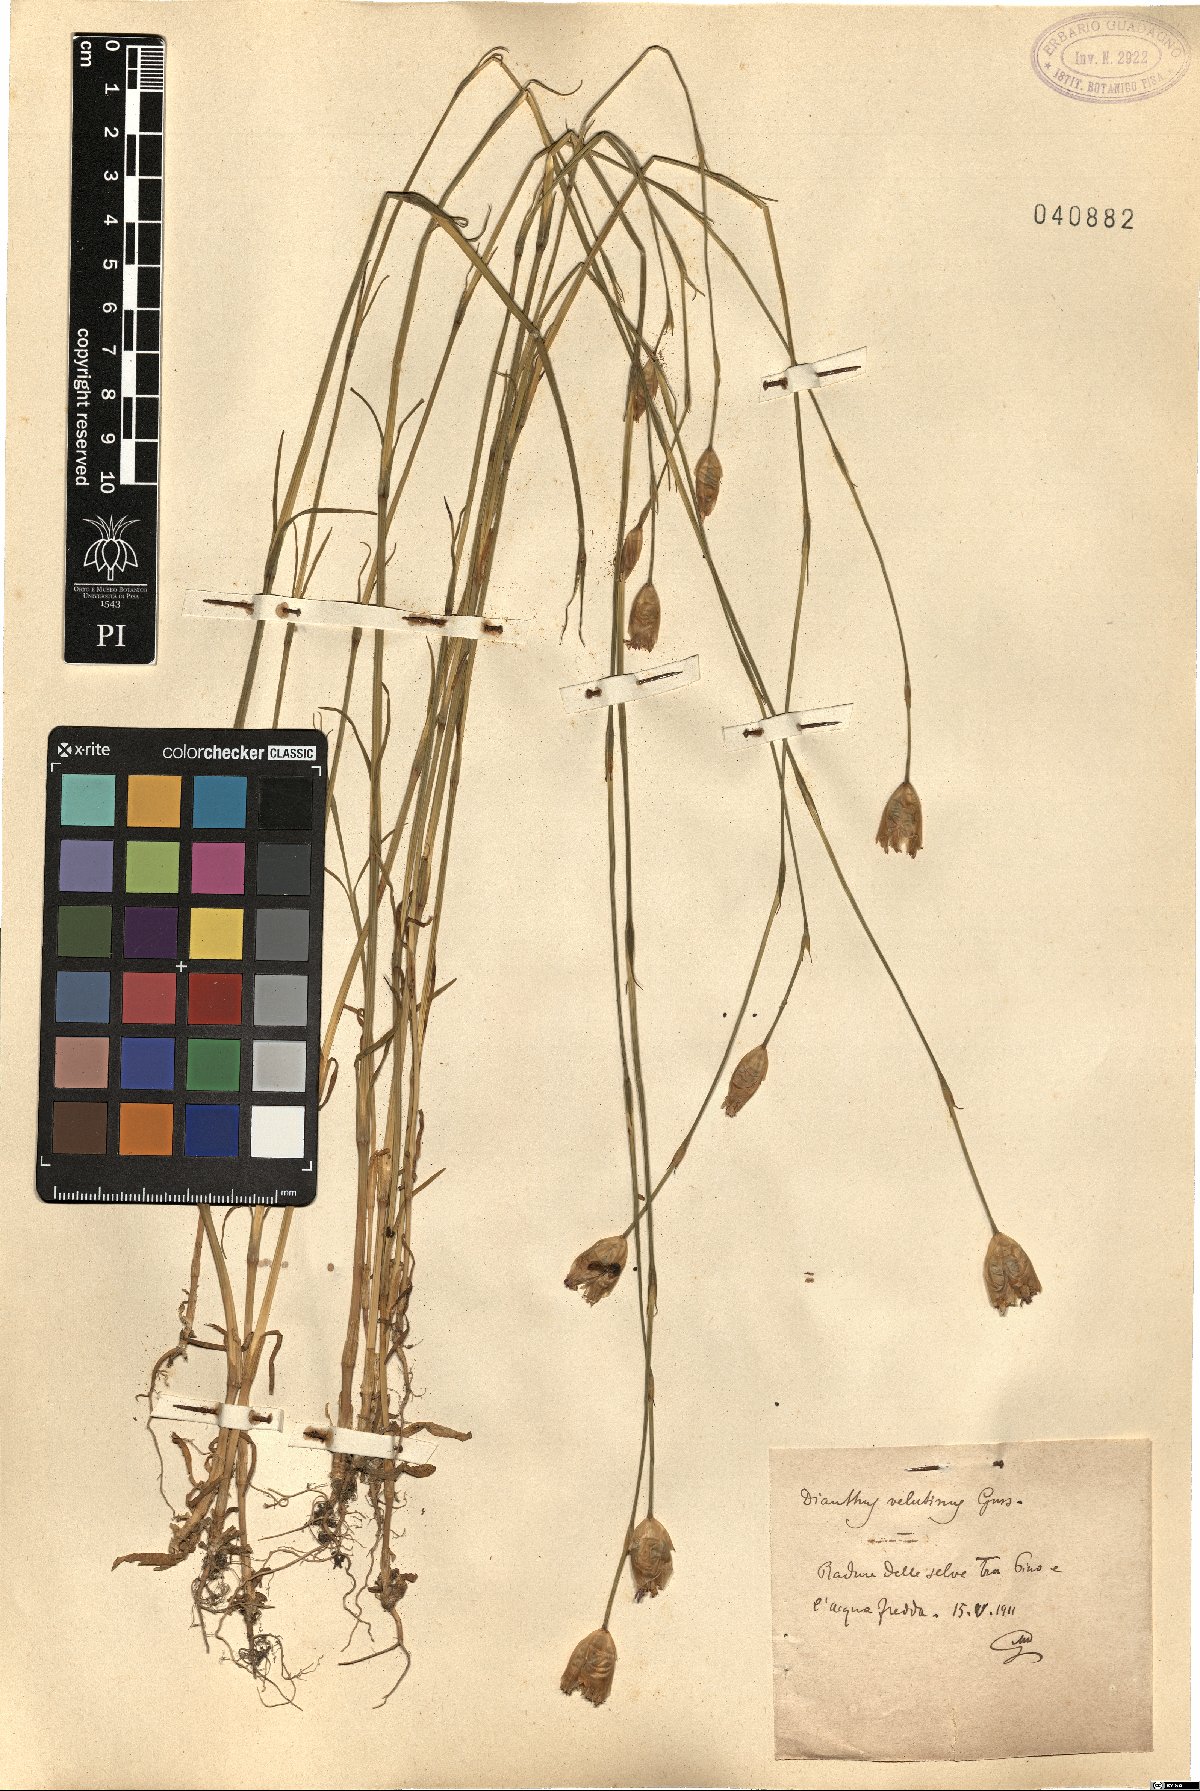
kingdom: Plantae
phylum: Tracheophyta
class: Magnoliopsida
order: Caryophyllales
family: Caryophyllaceae
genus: Petrorhagia
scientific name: Petrorhagia dubia
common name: Hairypink
